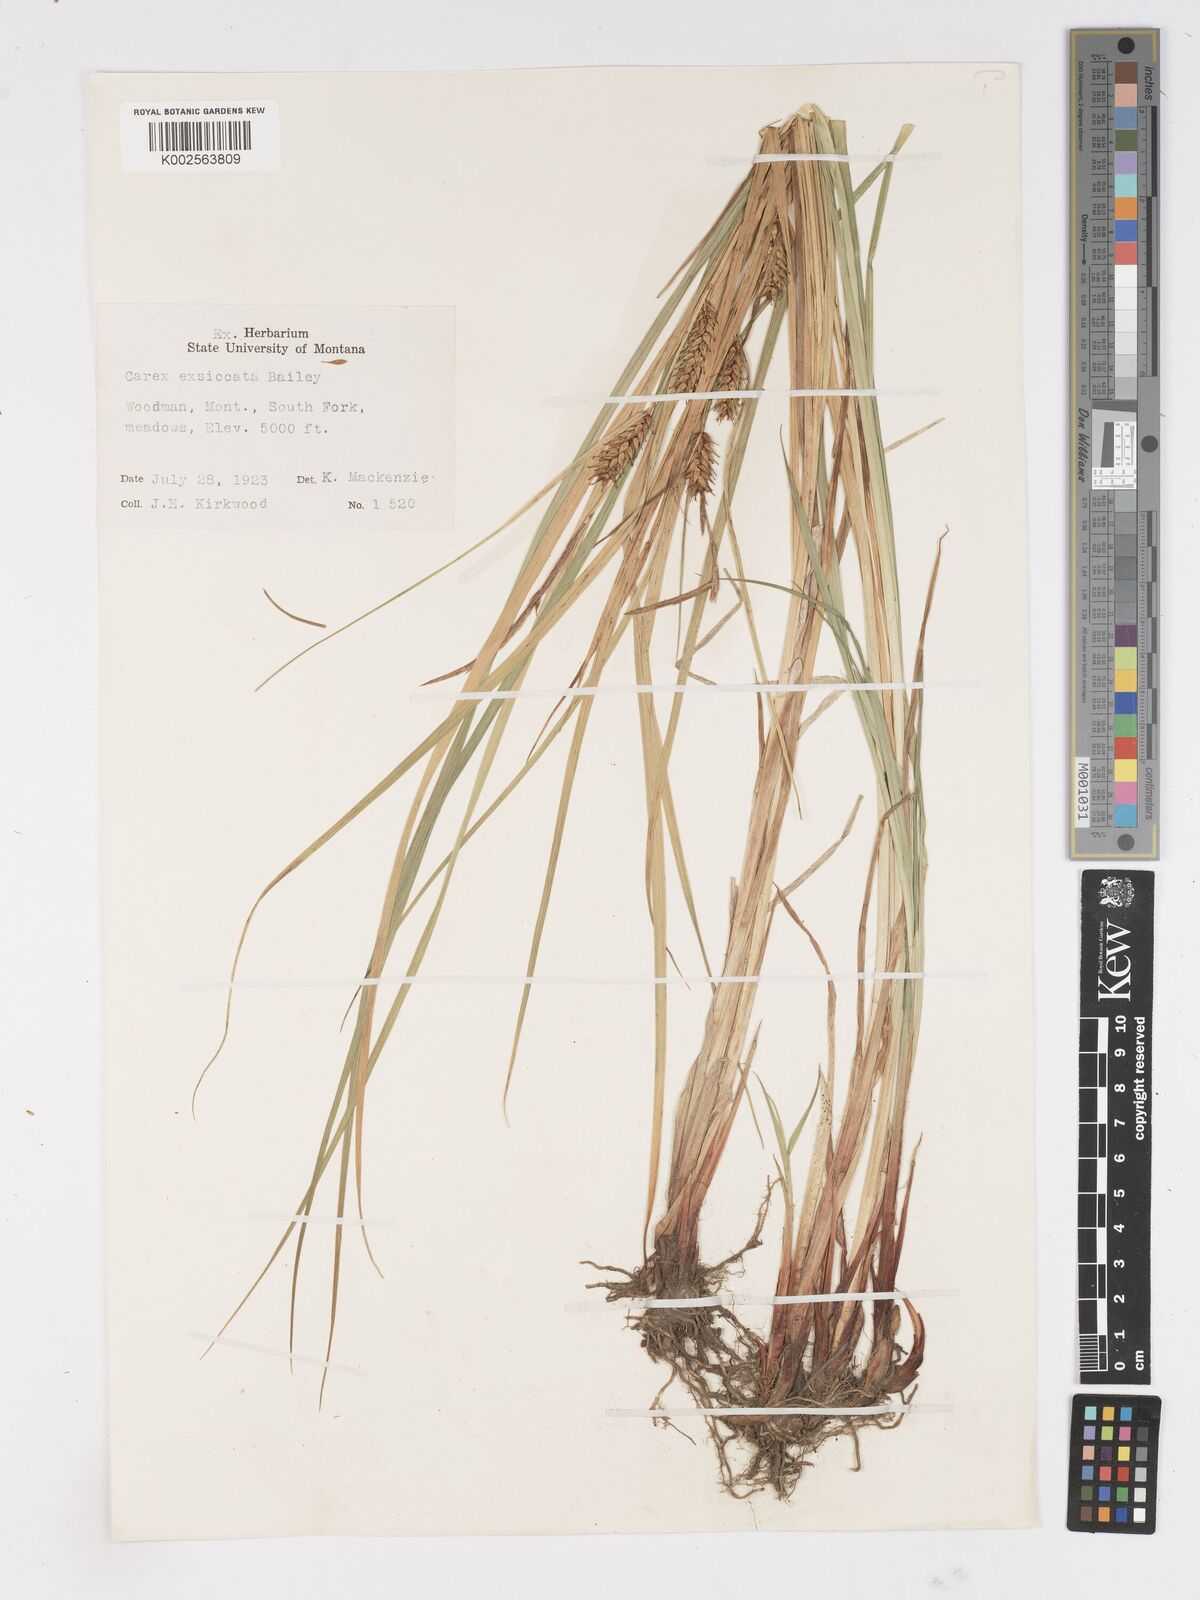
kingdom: Plantae
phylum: Tracheophyta
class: Liliopsida
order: Poales
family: Cyperaceae
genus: Carex
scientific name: Carex exsiccata
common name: Beaked sedge
